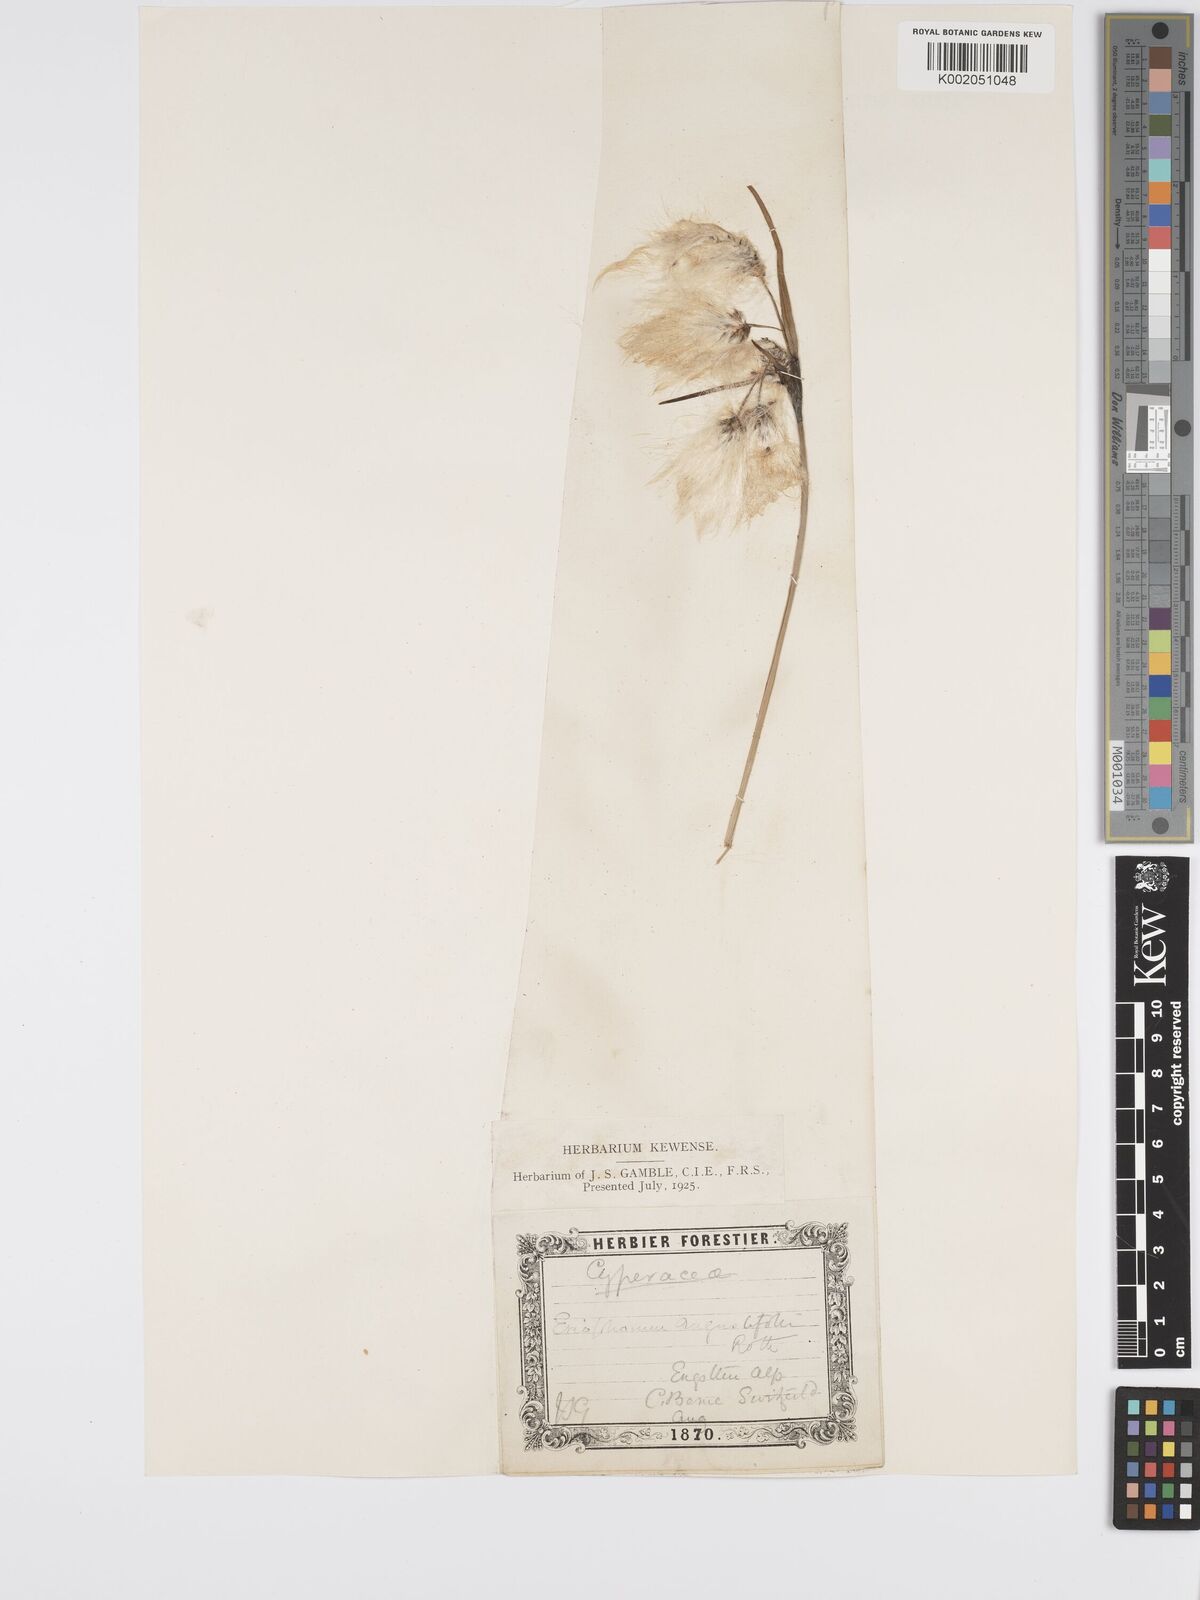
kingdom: Plantae
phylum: Tracheophyta
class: Liliopsida
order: Poales
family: Cyperaceae
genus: Eriophorum
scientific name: Eriophorum angustifolium
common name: Common cottongrass
